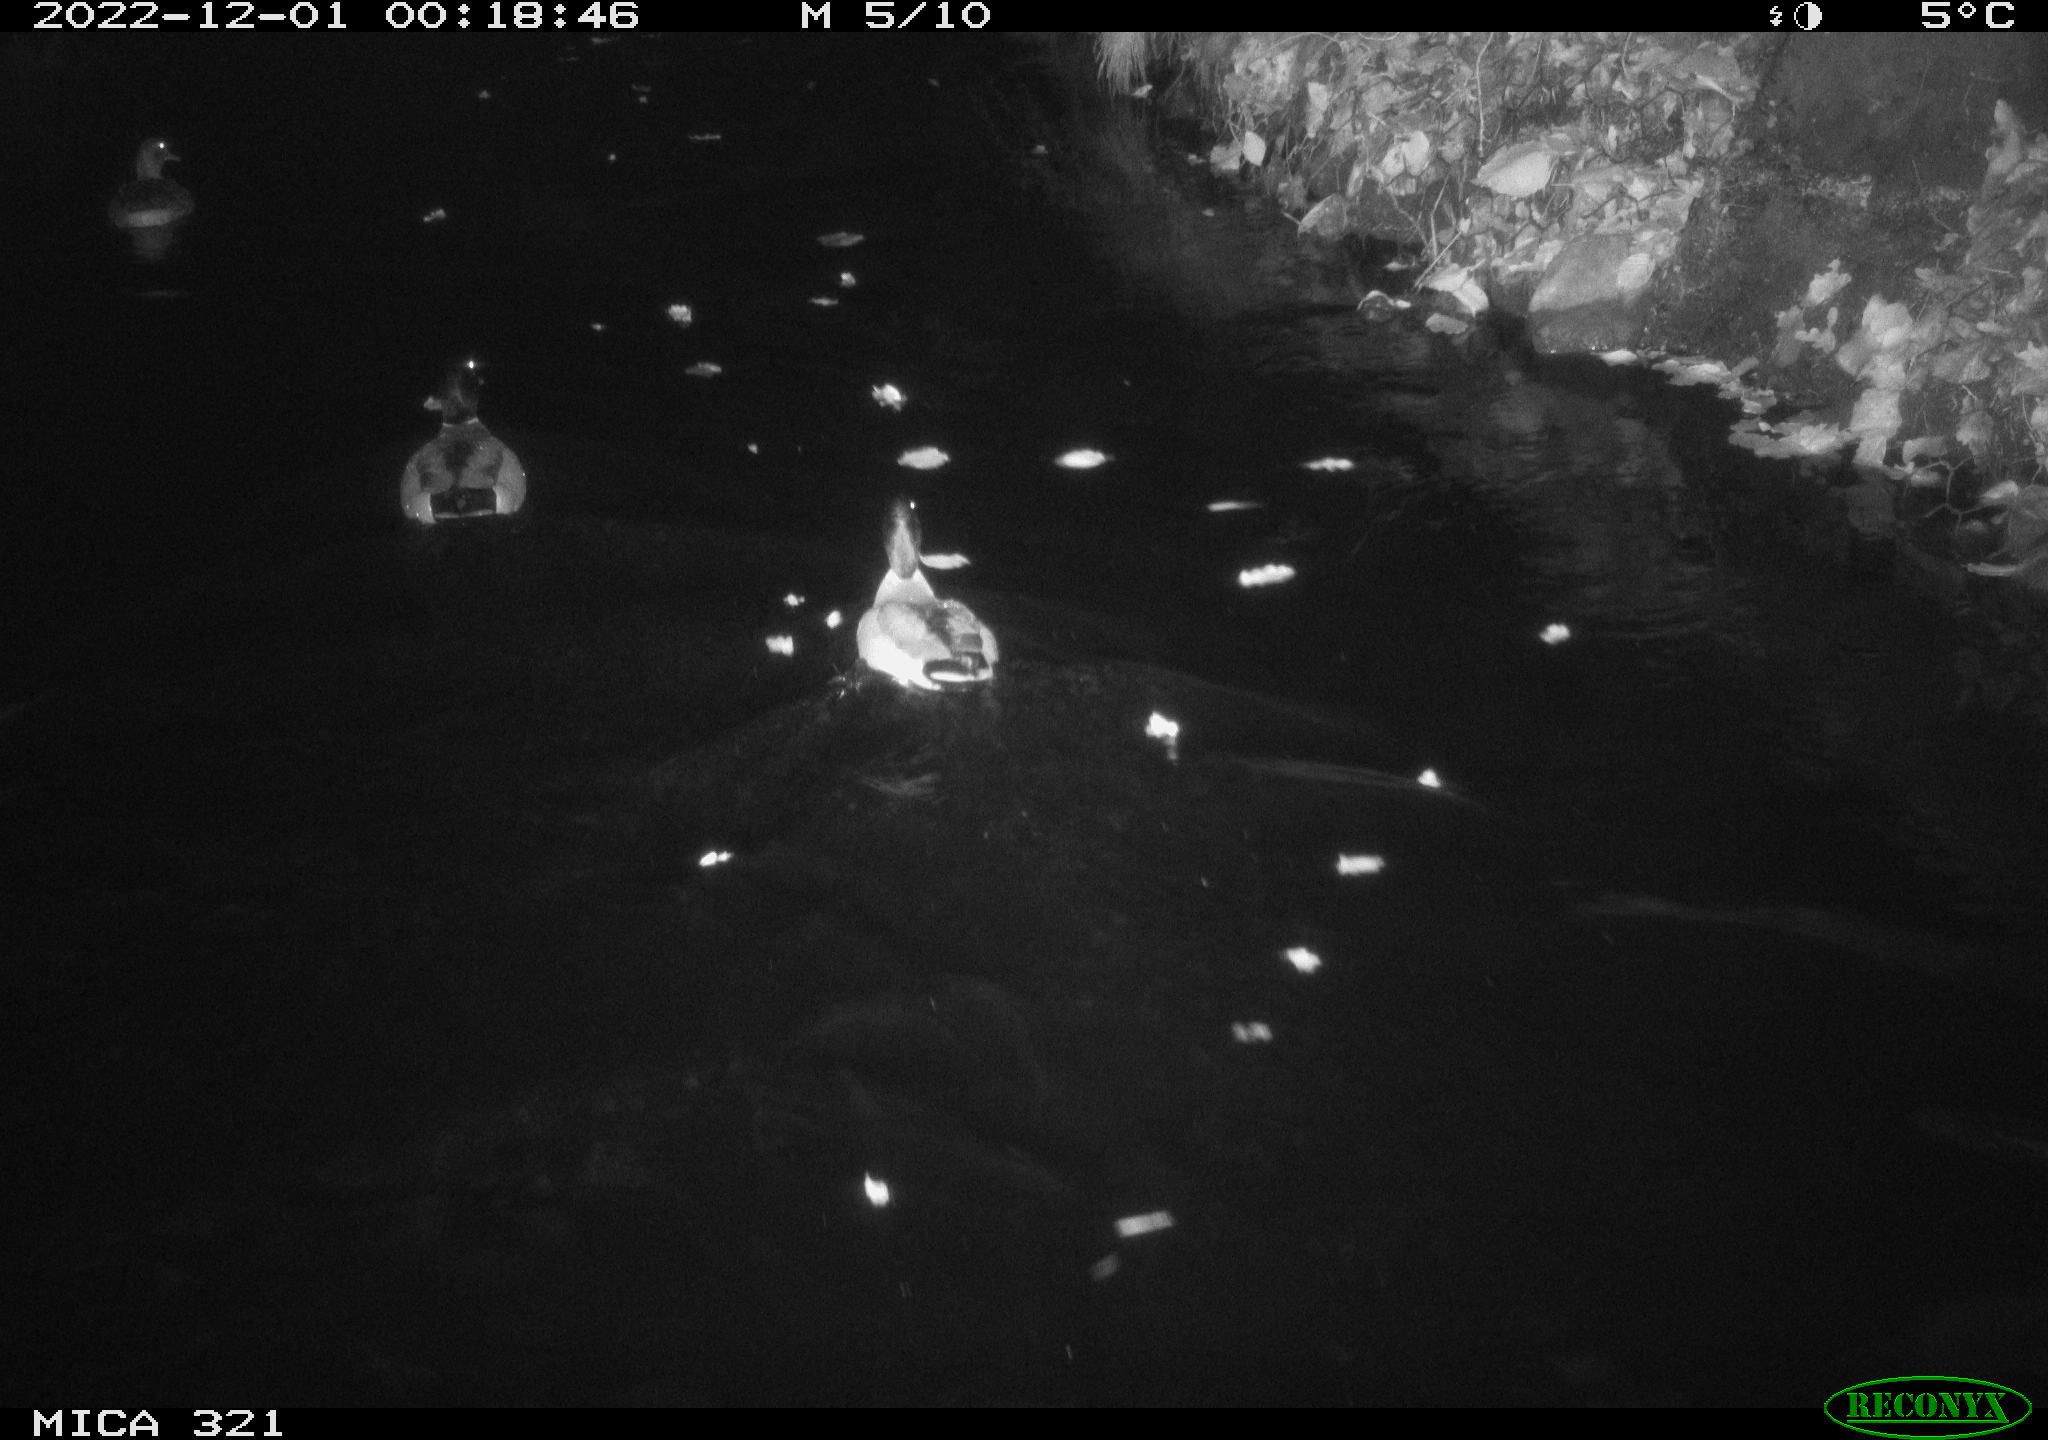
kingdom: Animalia
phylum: Chordata
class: Aves
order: Anseriformes
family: Anatidae
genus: Anas
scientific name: Anas
